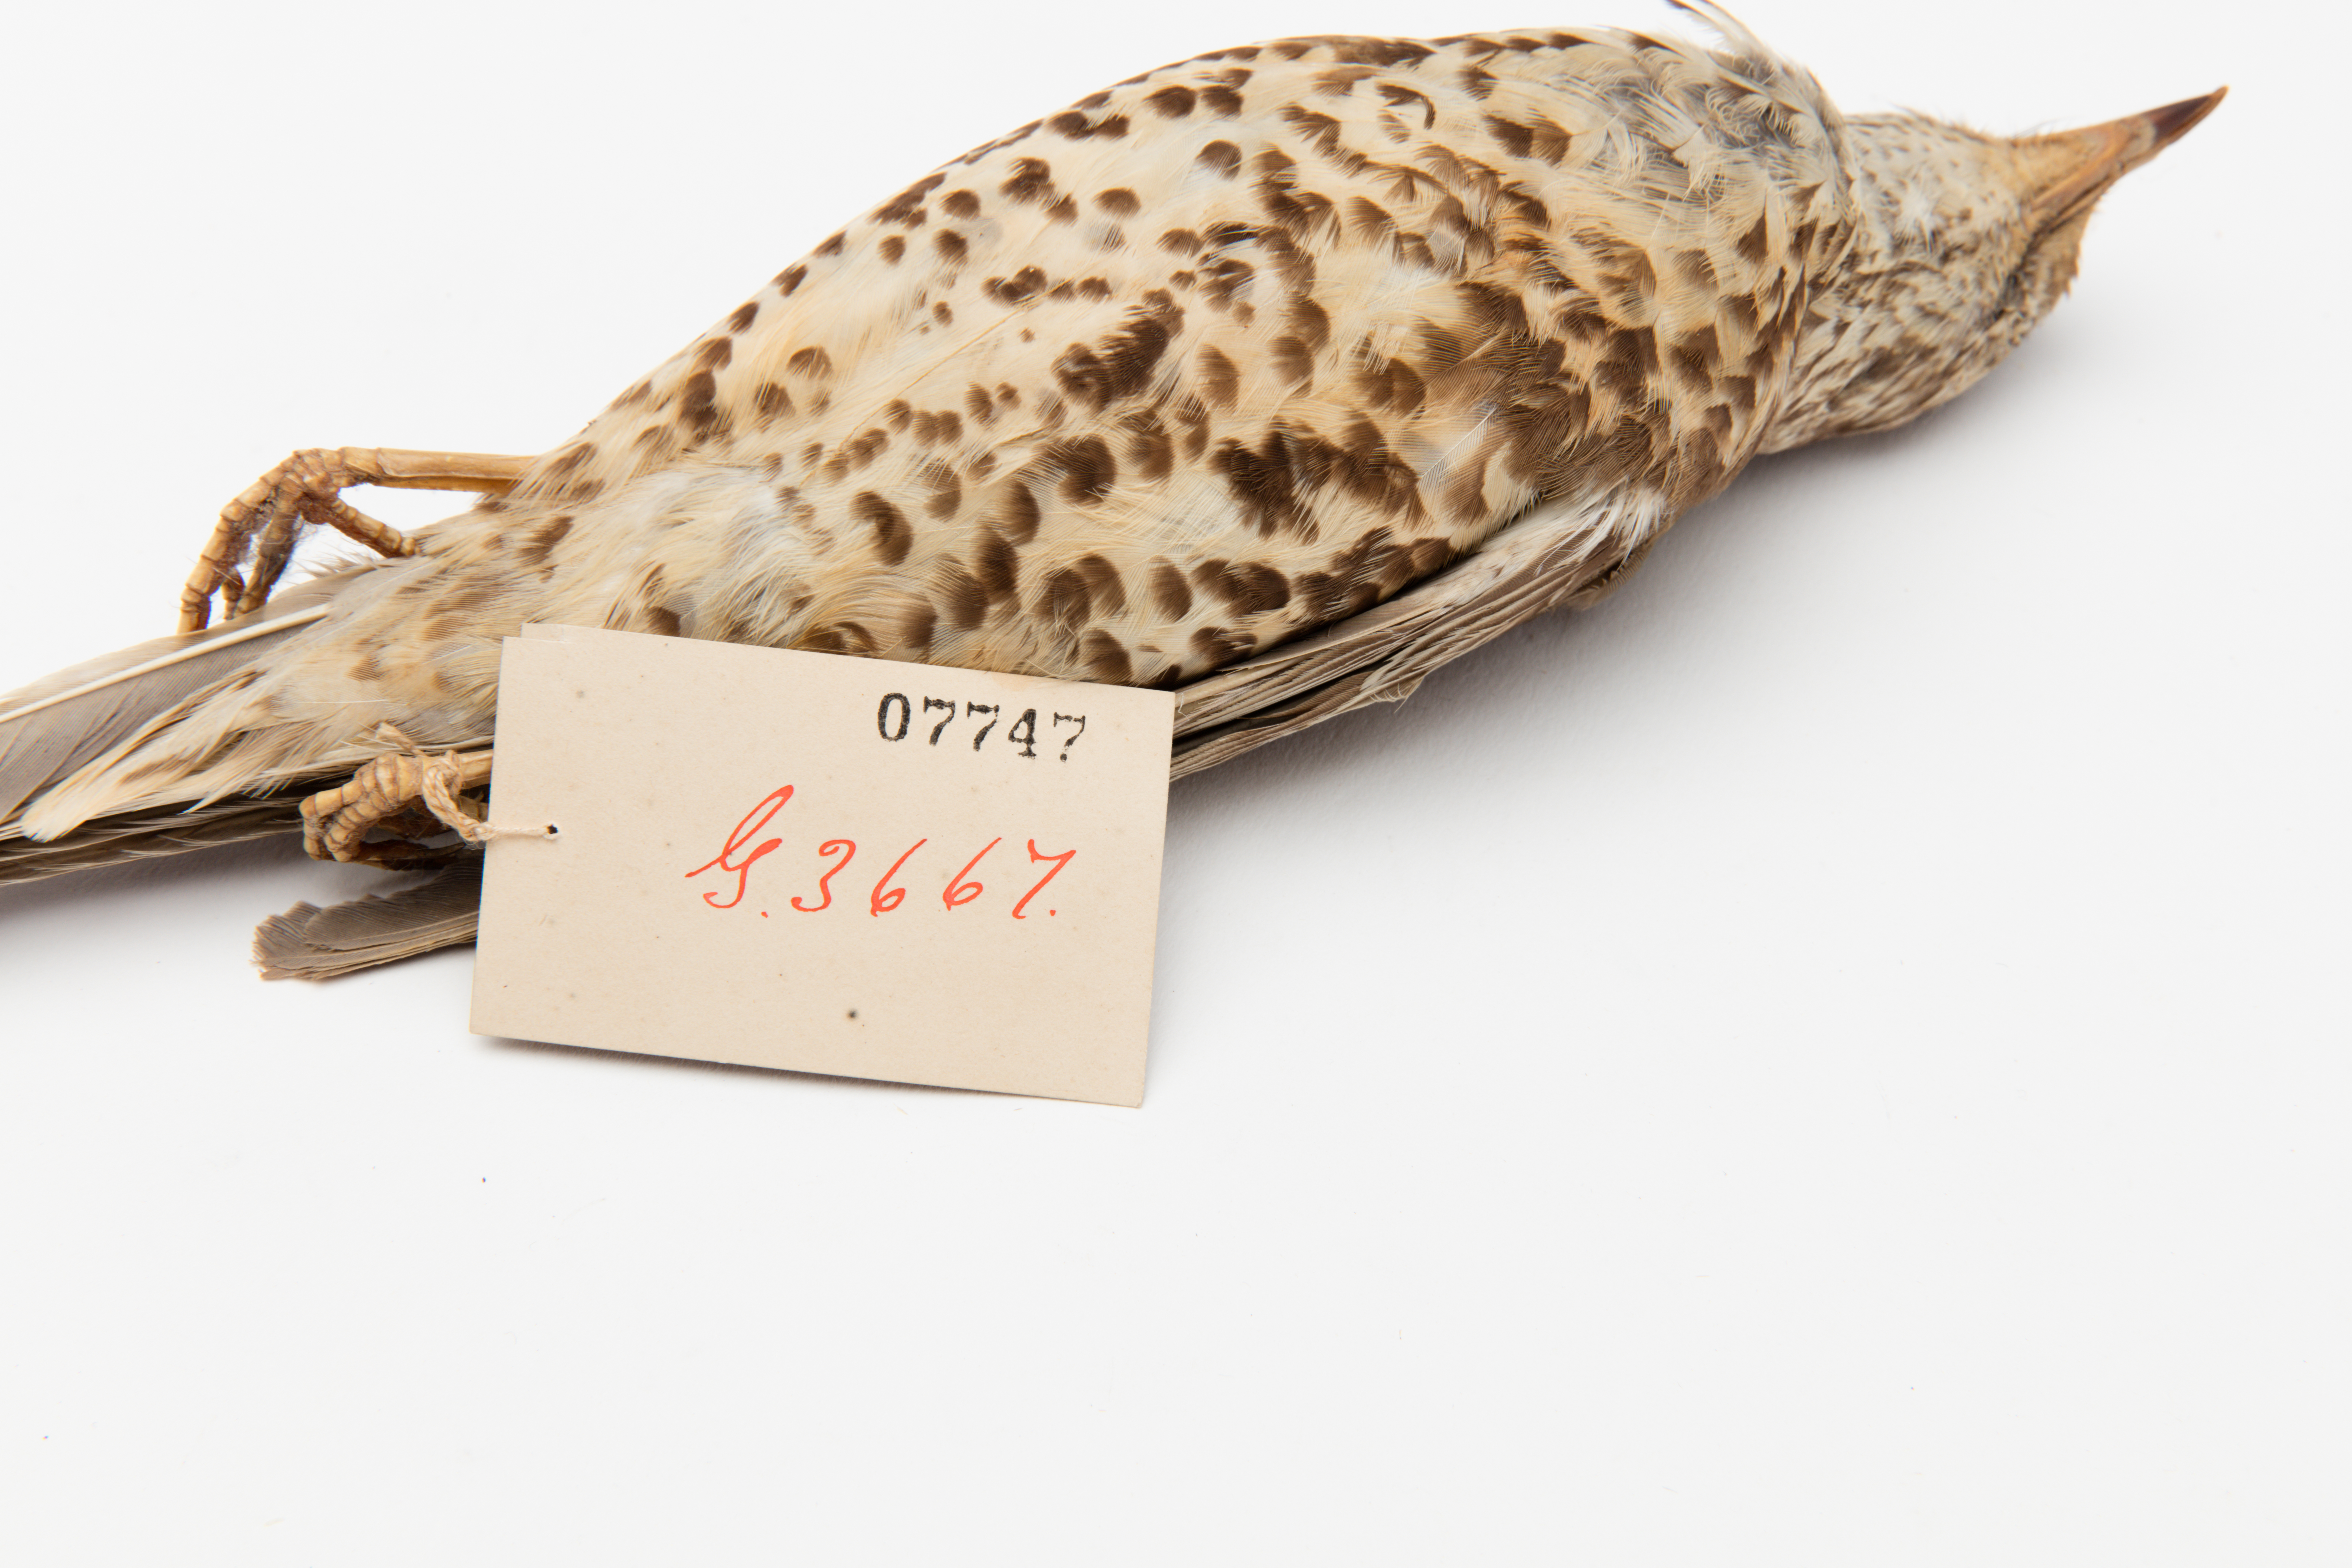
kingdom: Animalia
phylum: Chordata
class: Aves
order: Passeriformes
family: Turdidae
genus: Turdus
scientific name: Turdus viscivorus
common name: Mistle thrush
